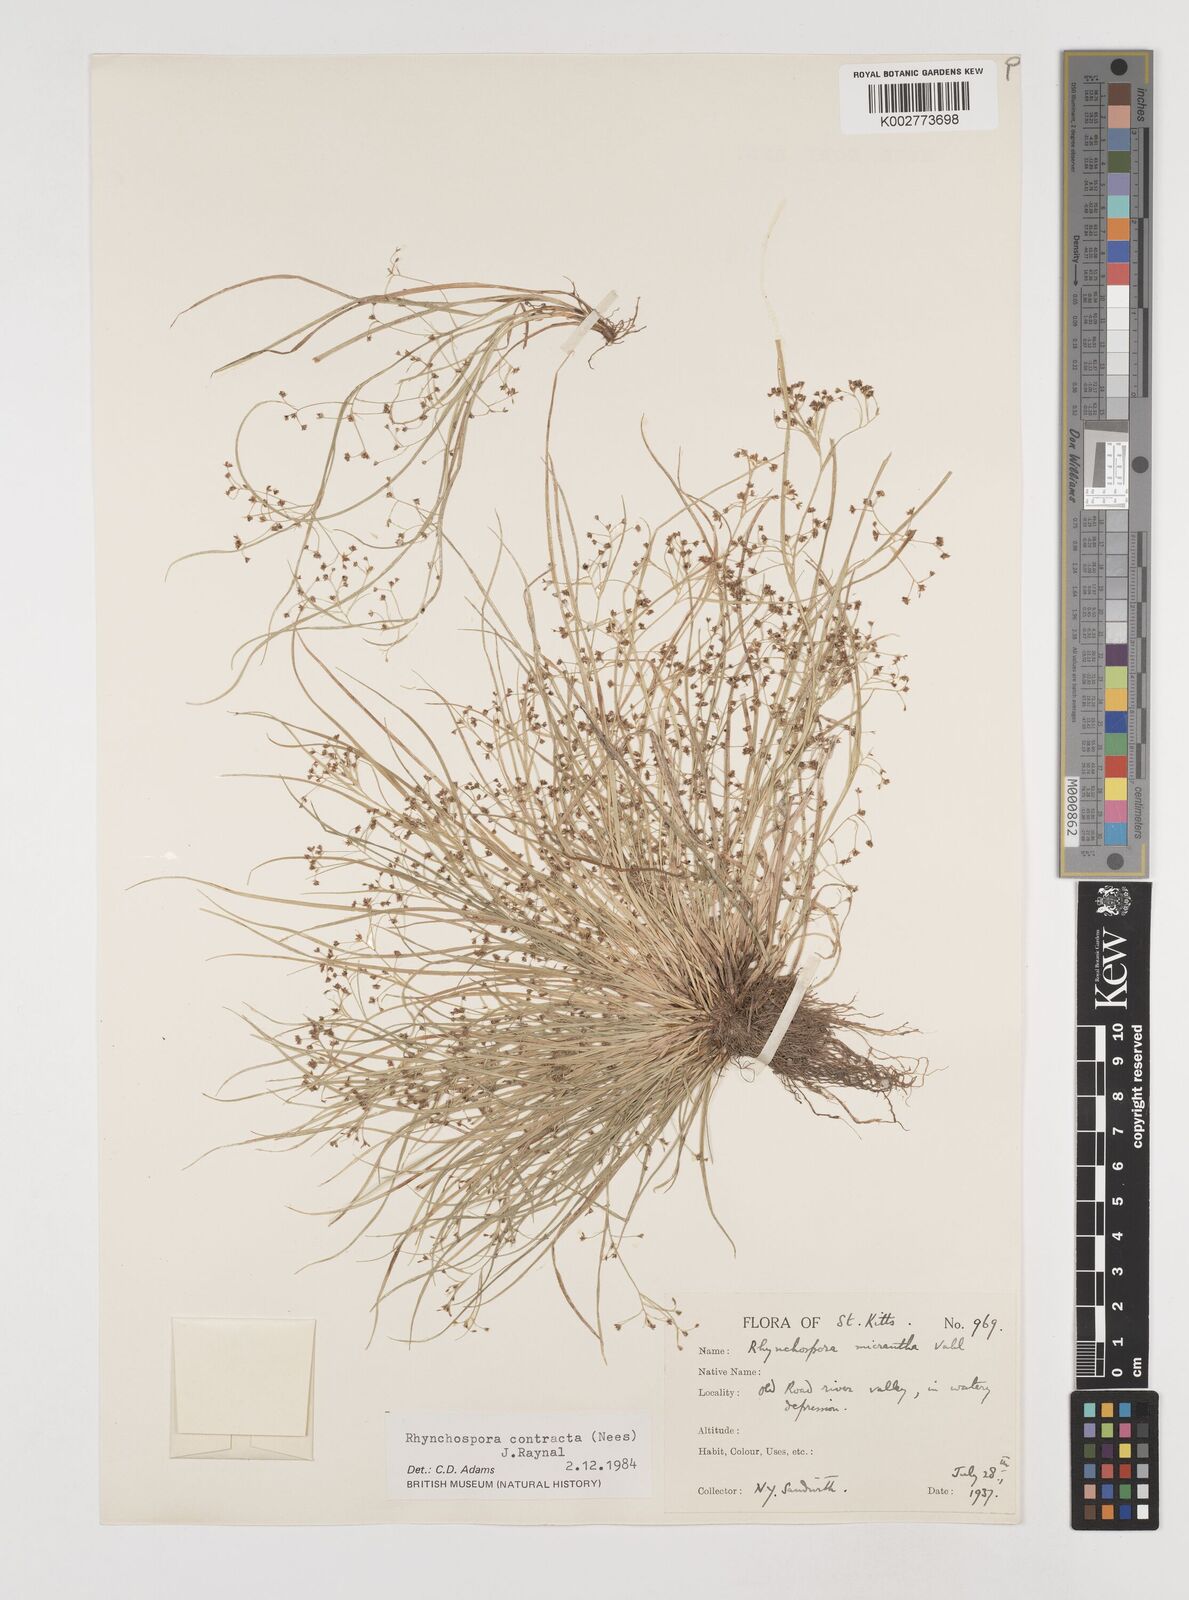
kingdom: Plantae
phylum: Tracheophyta
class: Liliopsida
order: Poales
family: Cyperaceae
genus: Rhynchospora
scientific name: Rhynchospora contracta
